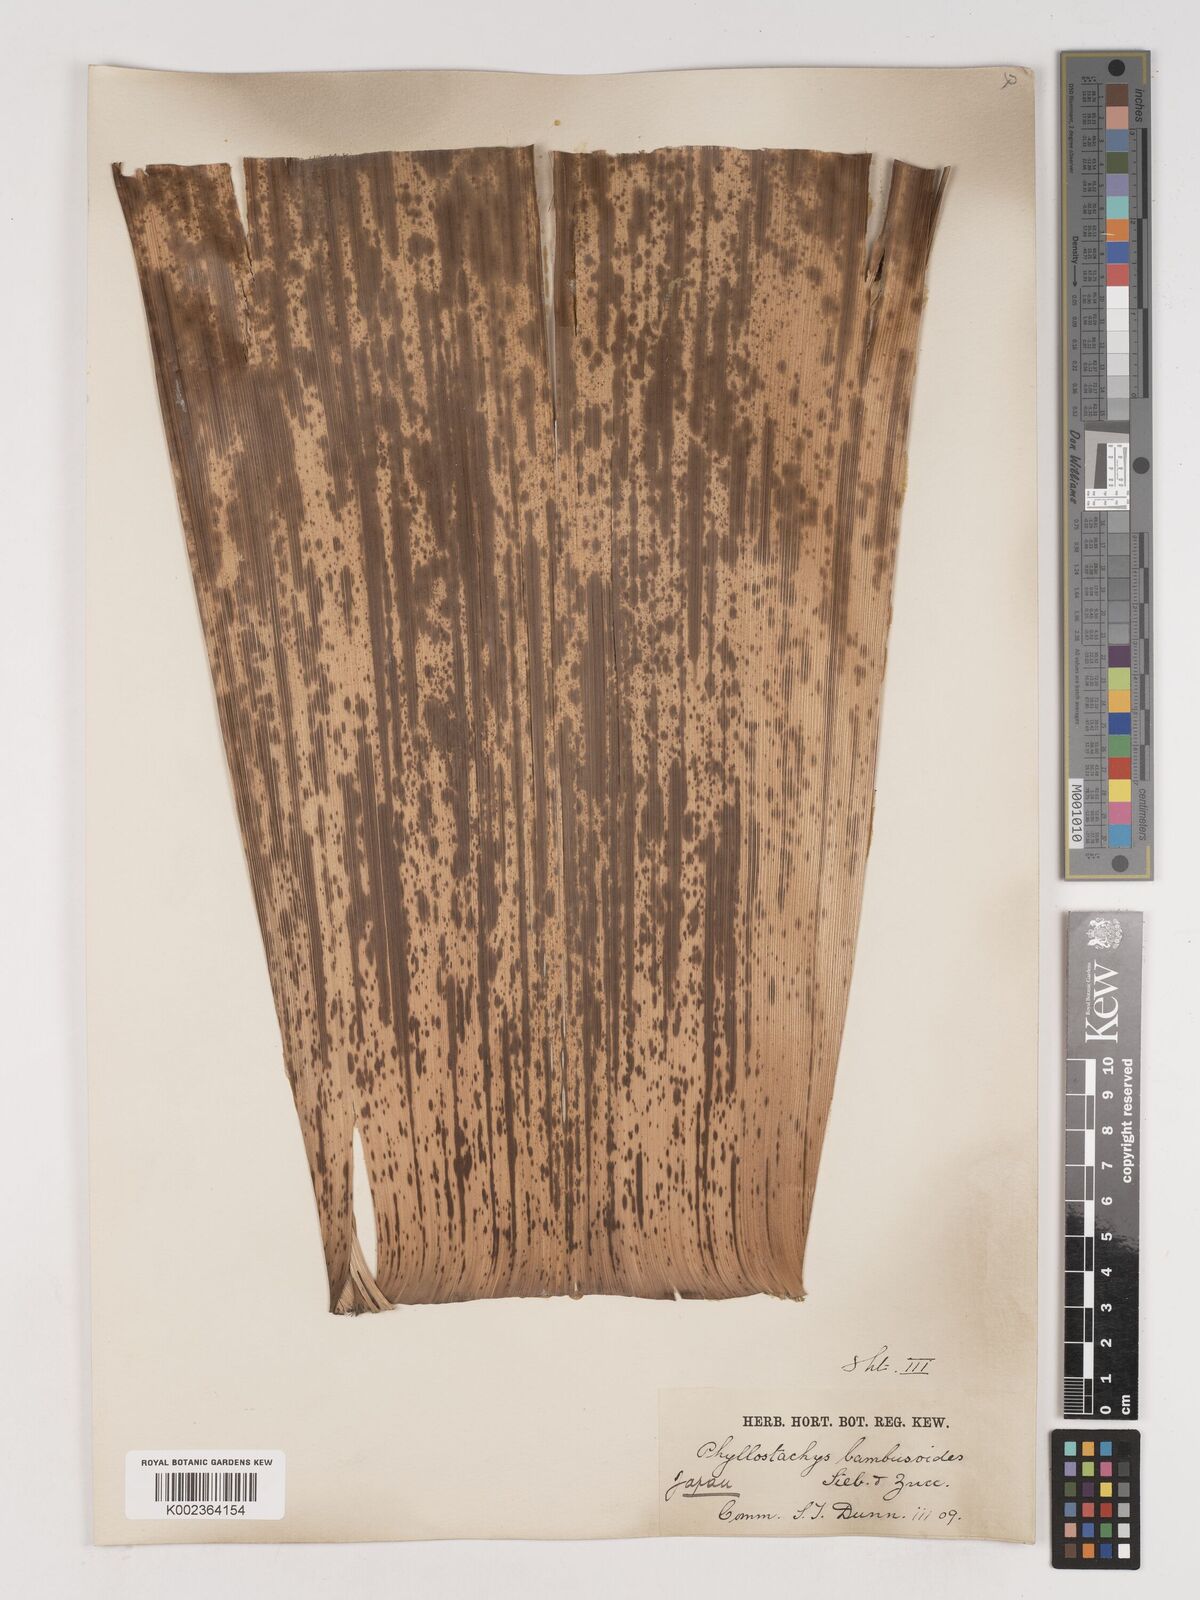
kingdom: Plantae
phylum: Tracheophyta
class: Liliopsida
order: Poales
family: Poaceae
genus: Phyllostachys
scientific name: Phyllostachys reticulata
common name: Bamboo
